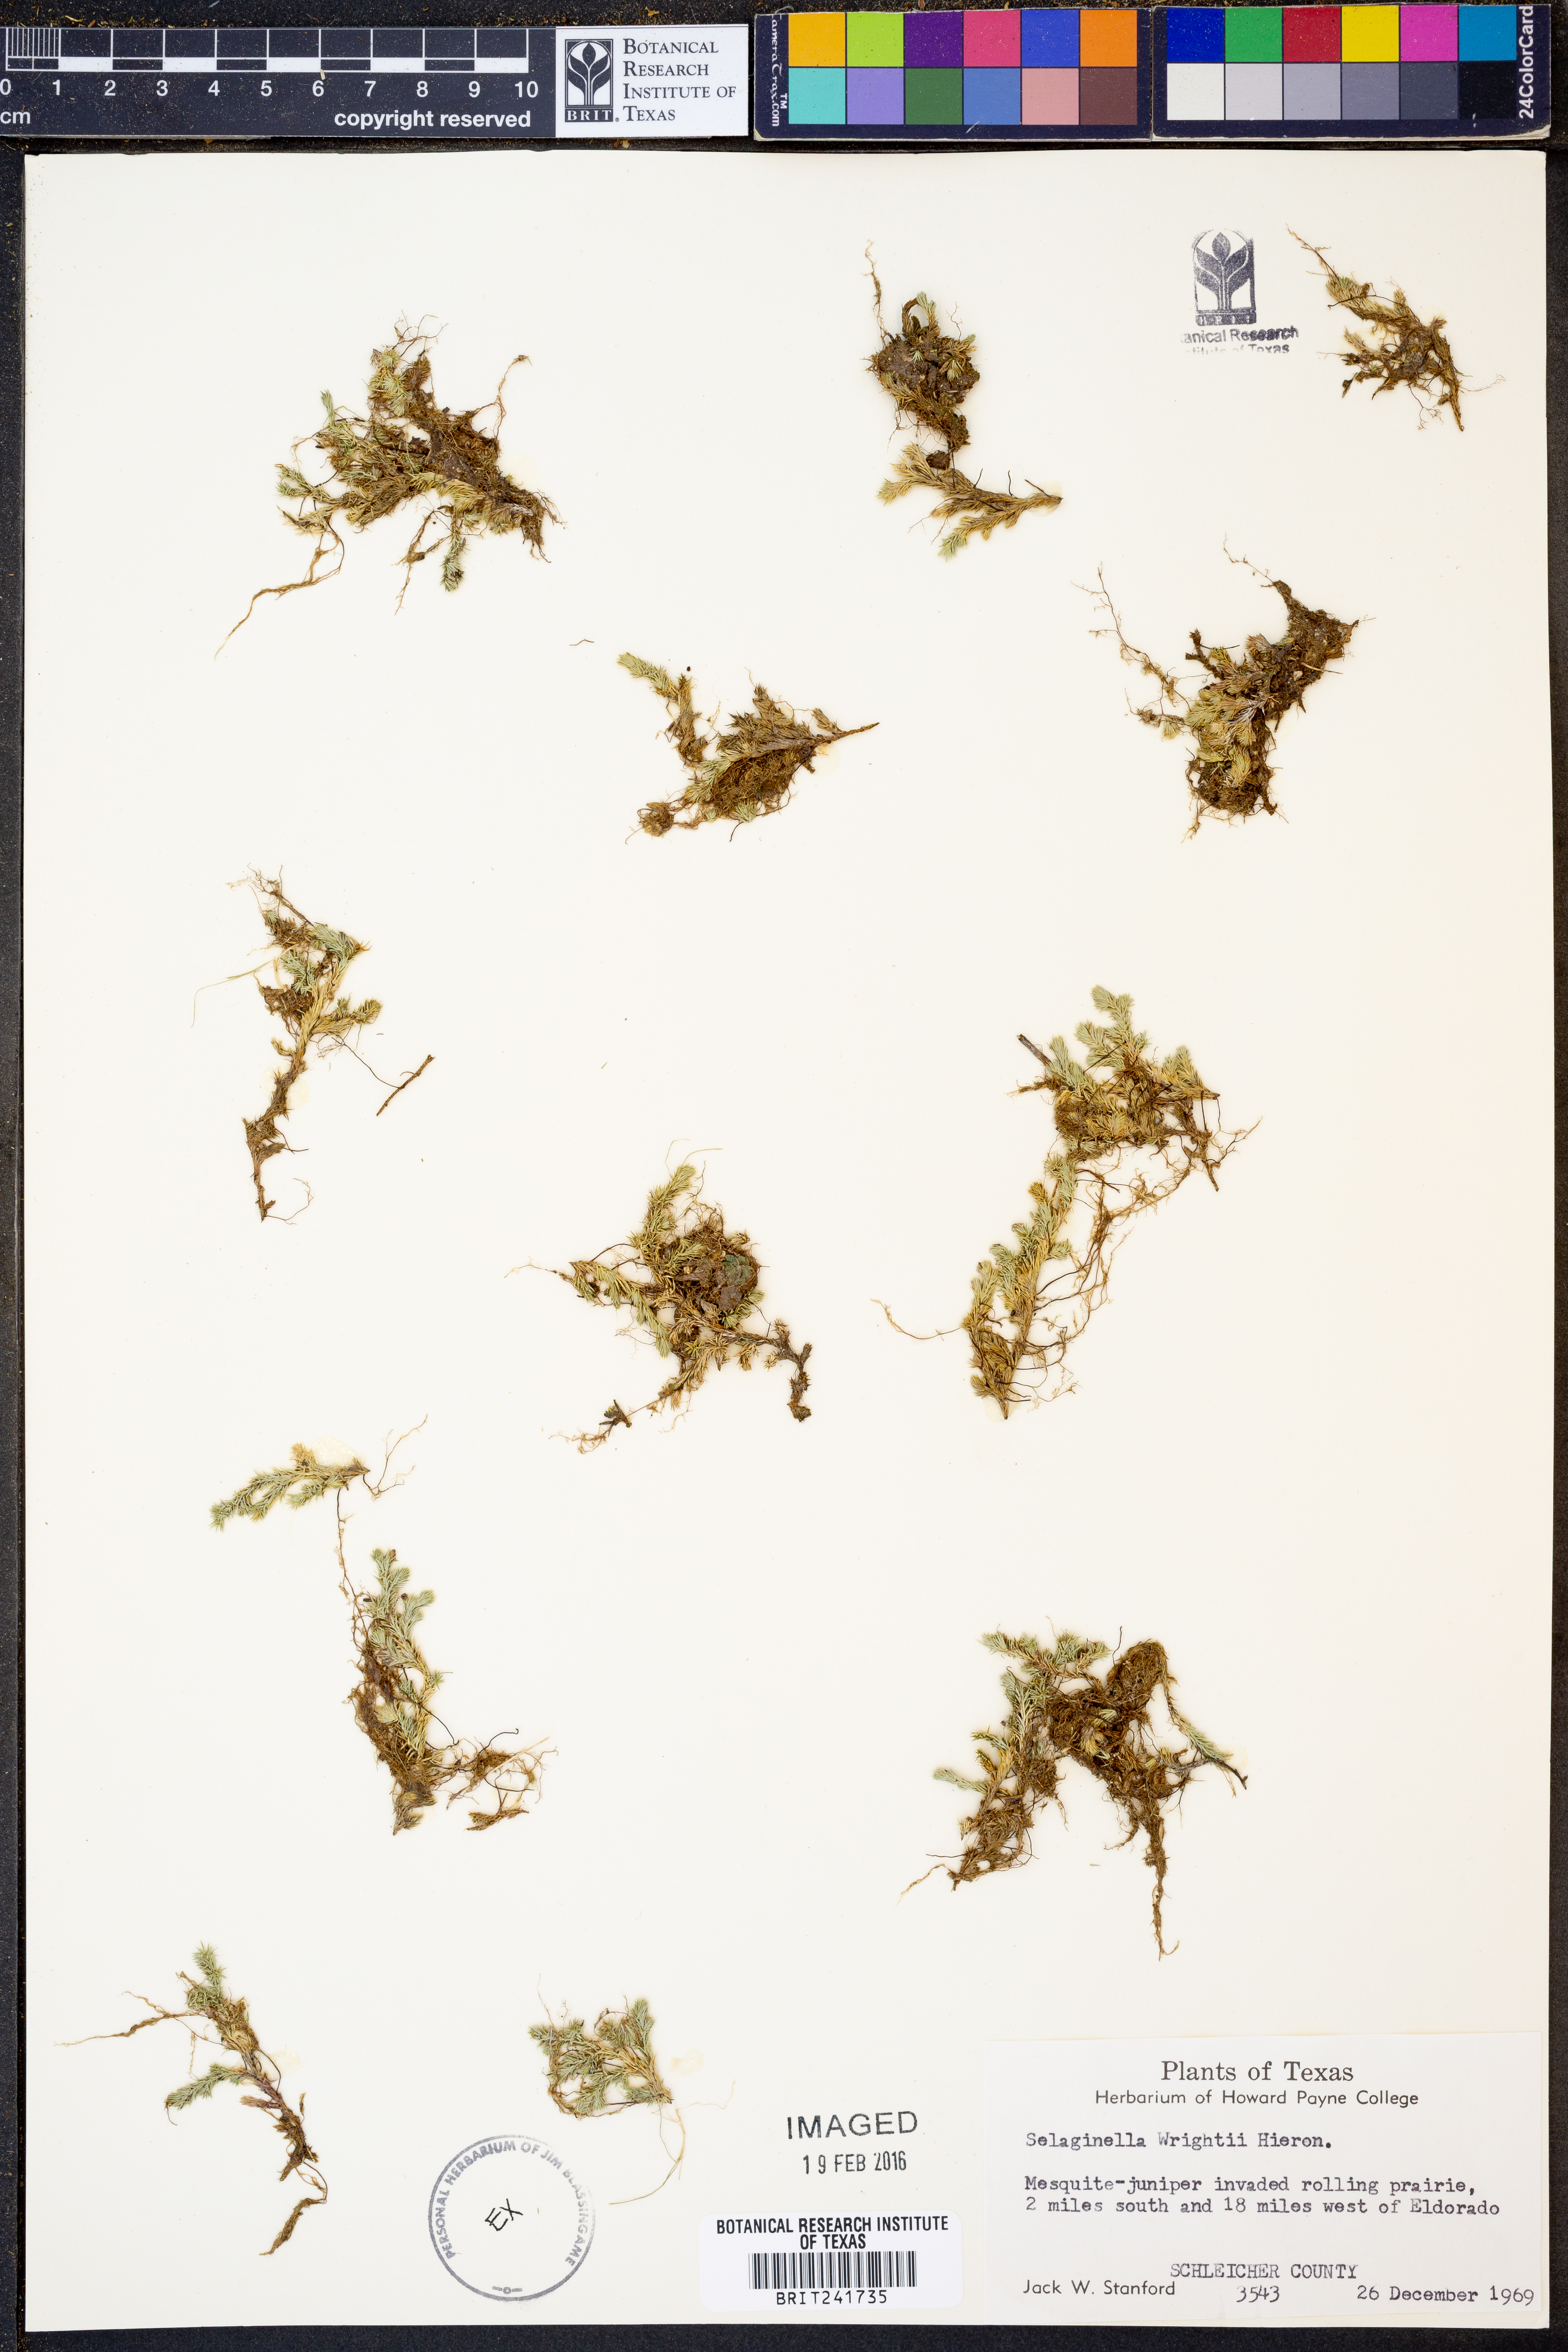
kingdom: Plantae
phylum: Tracheophyta
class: Lycopodiopsida
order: Selaginellales
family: Selaginellaceae
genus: Selaginella
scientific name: Selaginella wrightii
